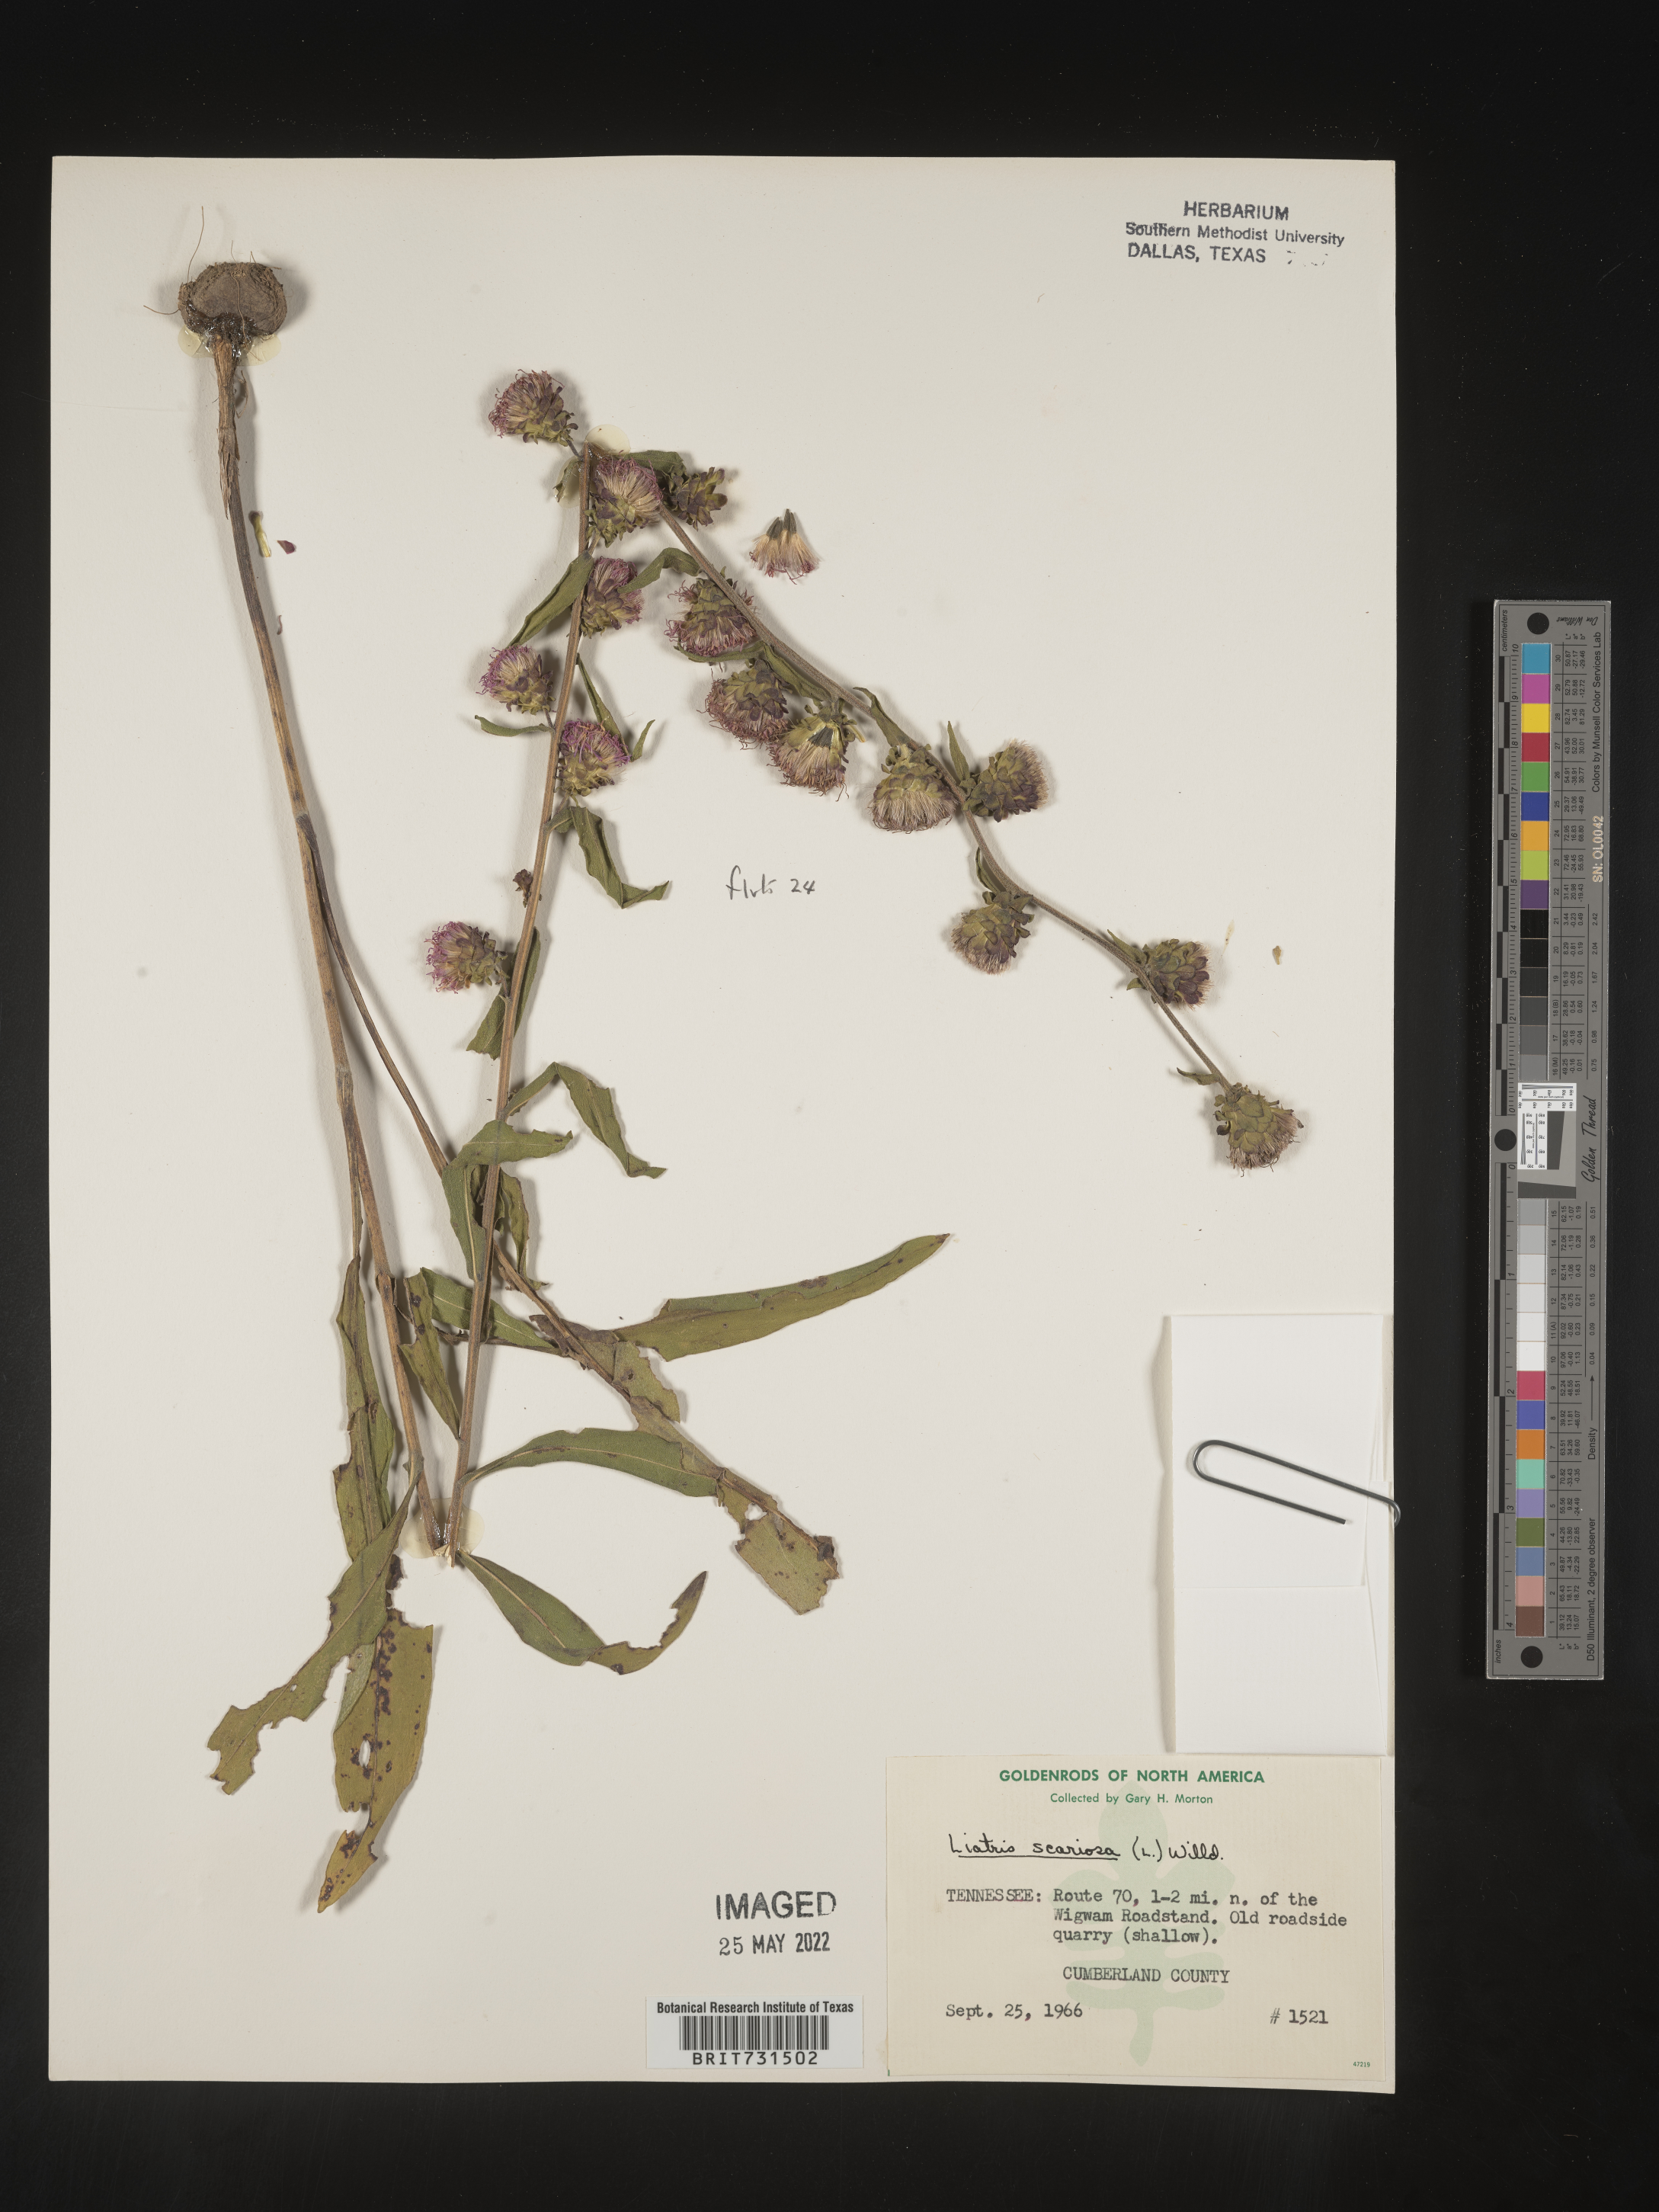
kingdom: Plantae
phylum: Tracheophyta
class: Magnoliopsida
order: Asterales
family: Asteraceae
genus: Liatris
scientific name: Liatris squarrulosa
